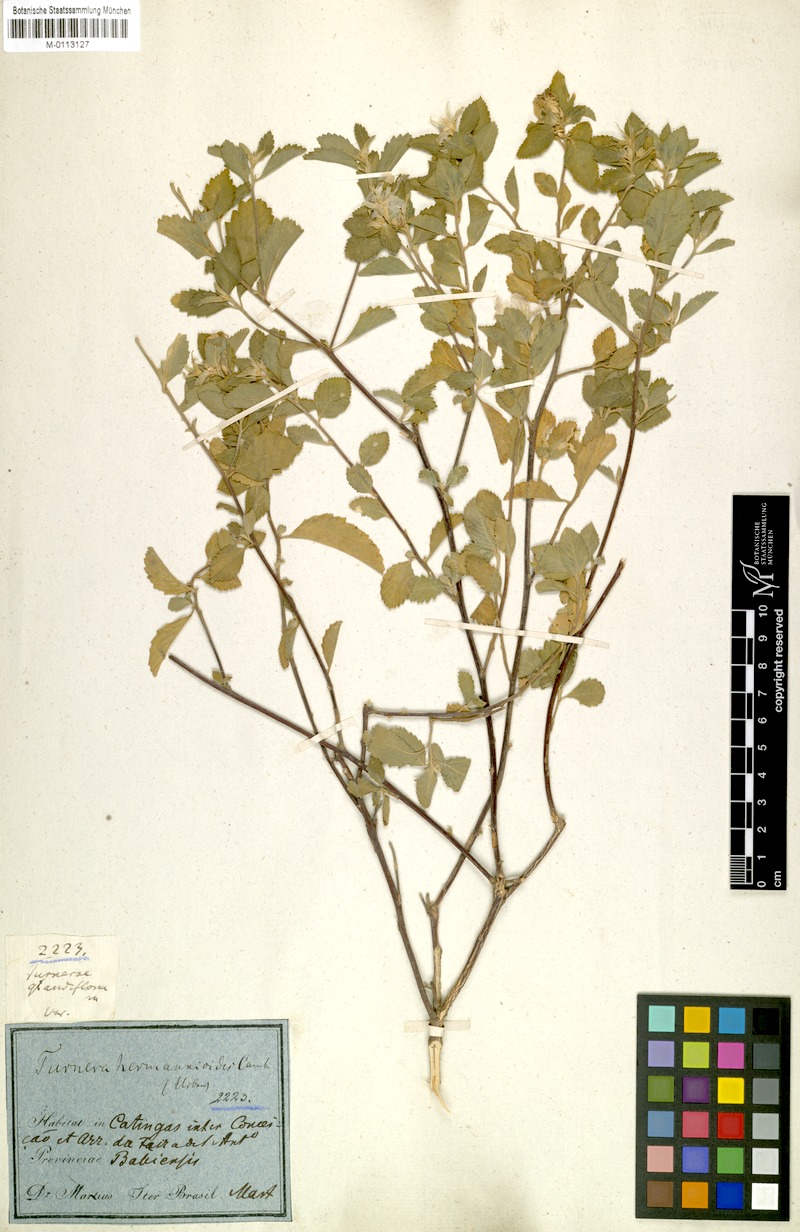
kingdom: Plantae
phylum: Tracheophyta
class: Magnoliopsida
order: Malpighiales
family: Turneraceae
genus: Turnera
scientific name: Turnera hermannioides
